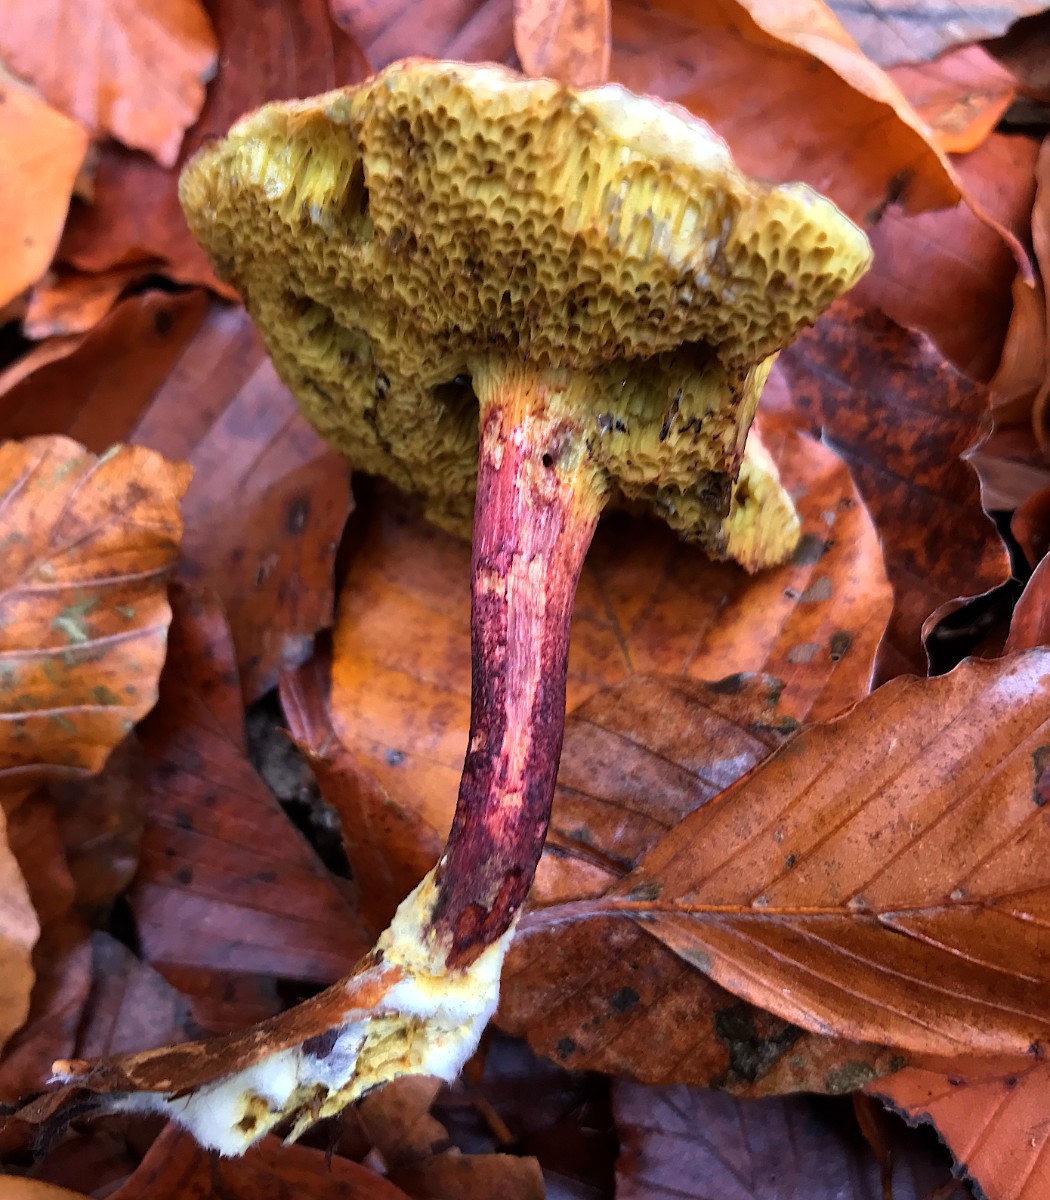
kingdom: Fungi
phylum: Basidiomycota
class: Agaricomycetes
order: Boletales
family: Boletaceae
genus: Xerocomellus
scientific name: Xerocomellus chrysenteron
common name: rødsprukken rørhat
